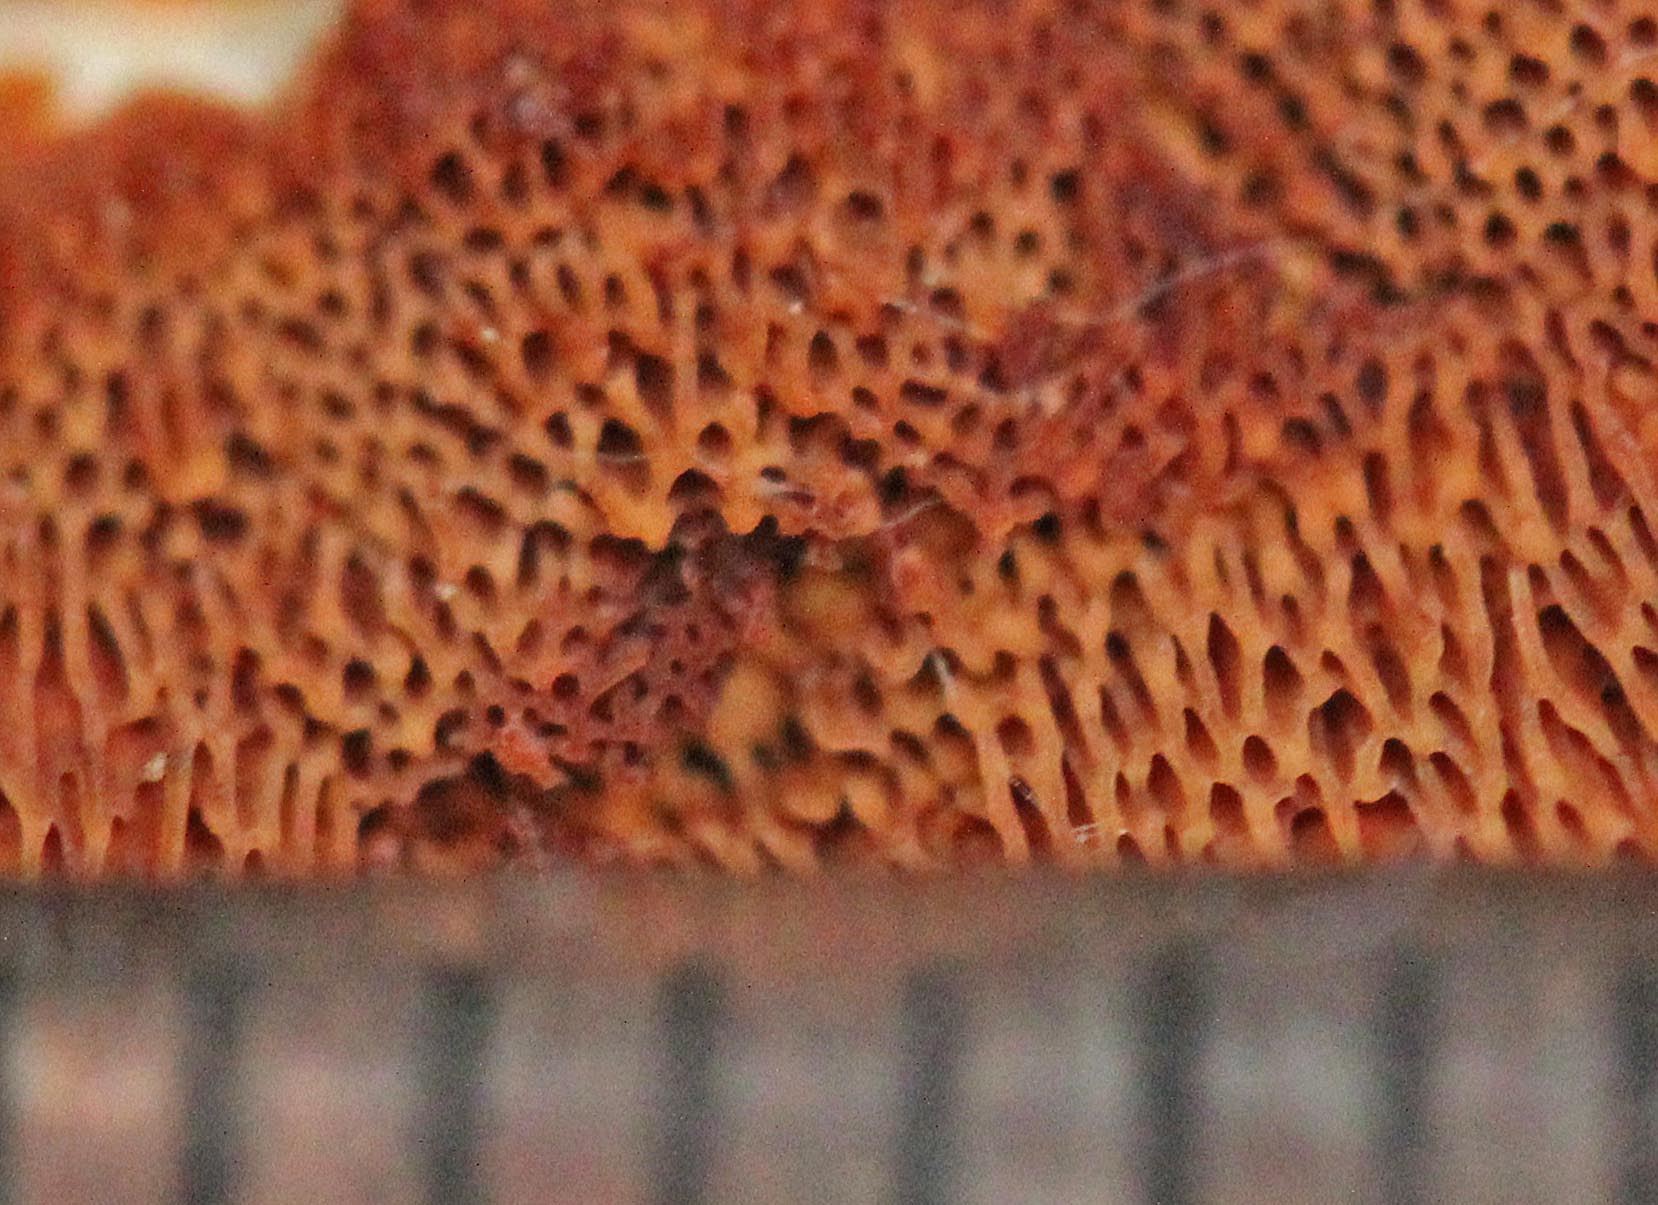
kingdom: Fungi
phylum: Basidiomycota
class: Agaricomycetes
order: Polyporales
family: Irpicaceae
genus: Meruliopsis
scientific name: Meruliopsis taxicola
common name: purpurbrun foldporesvamp
